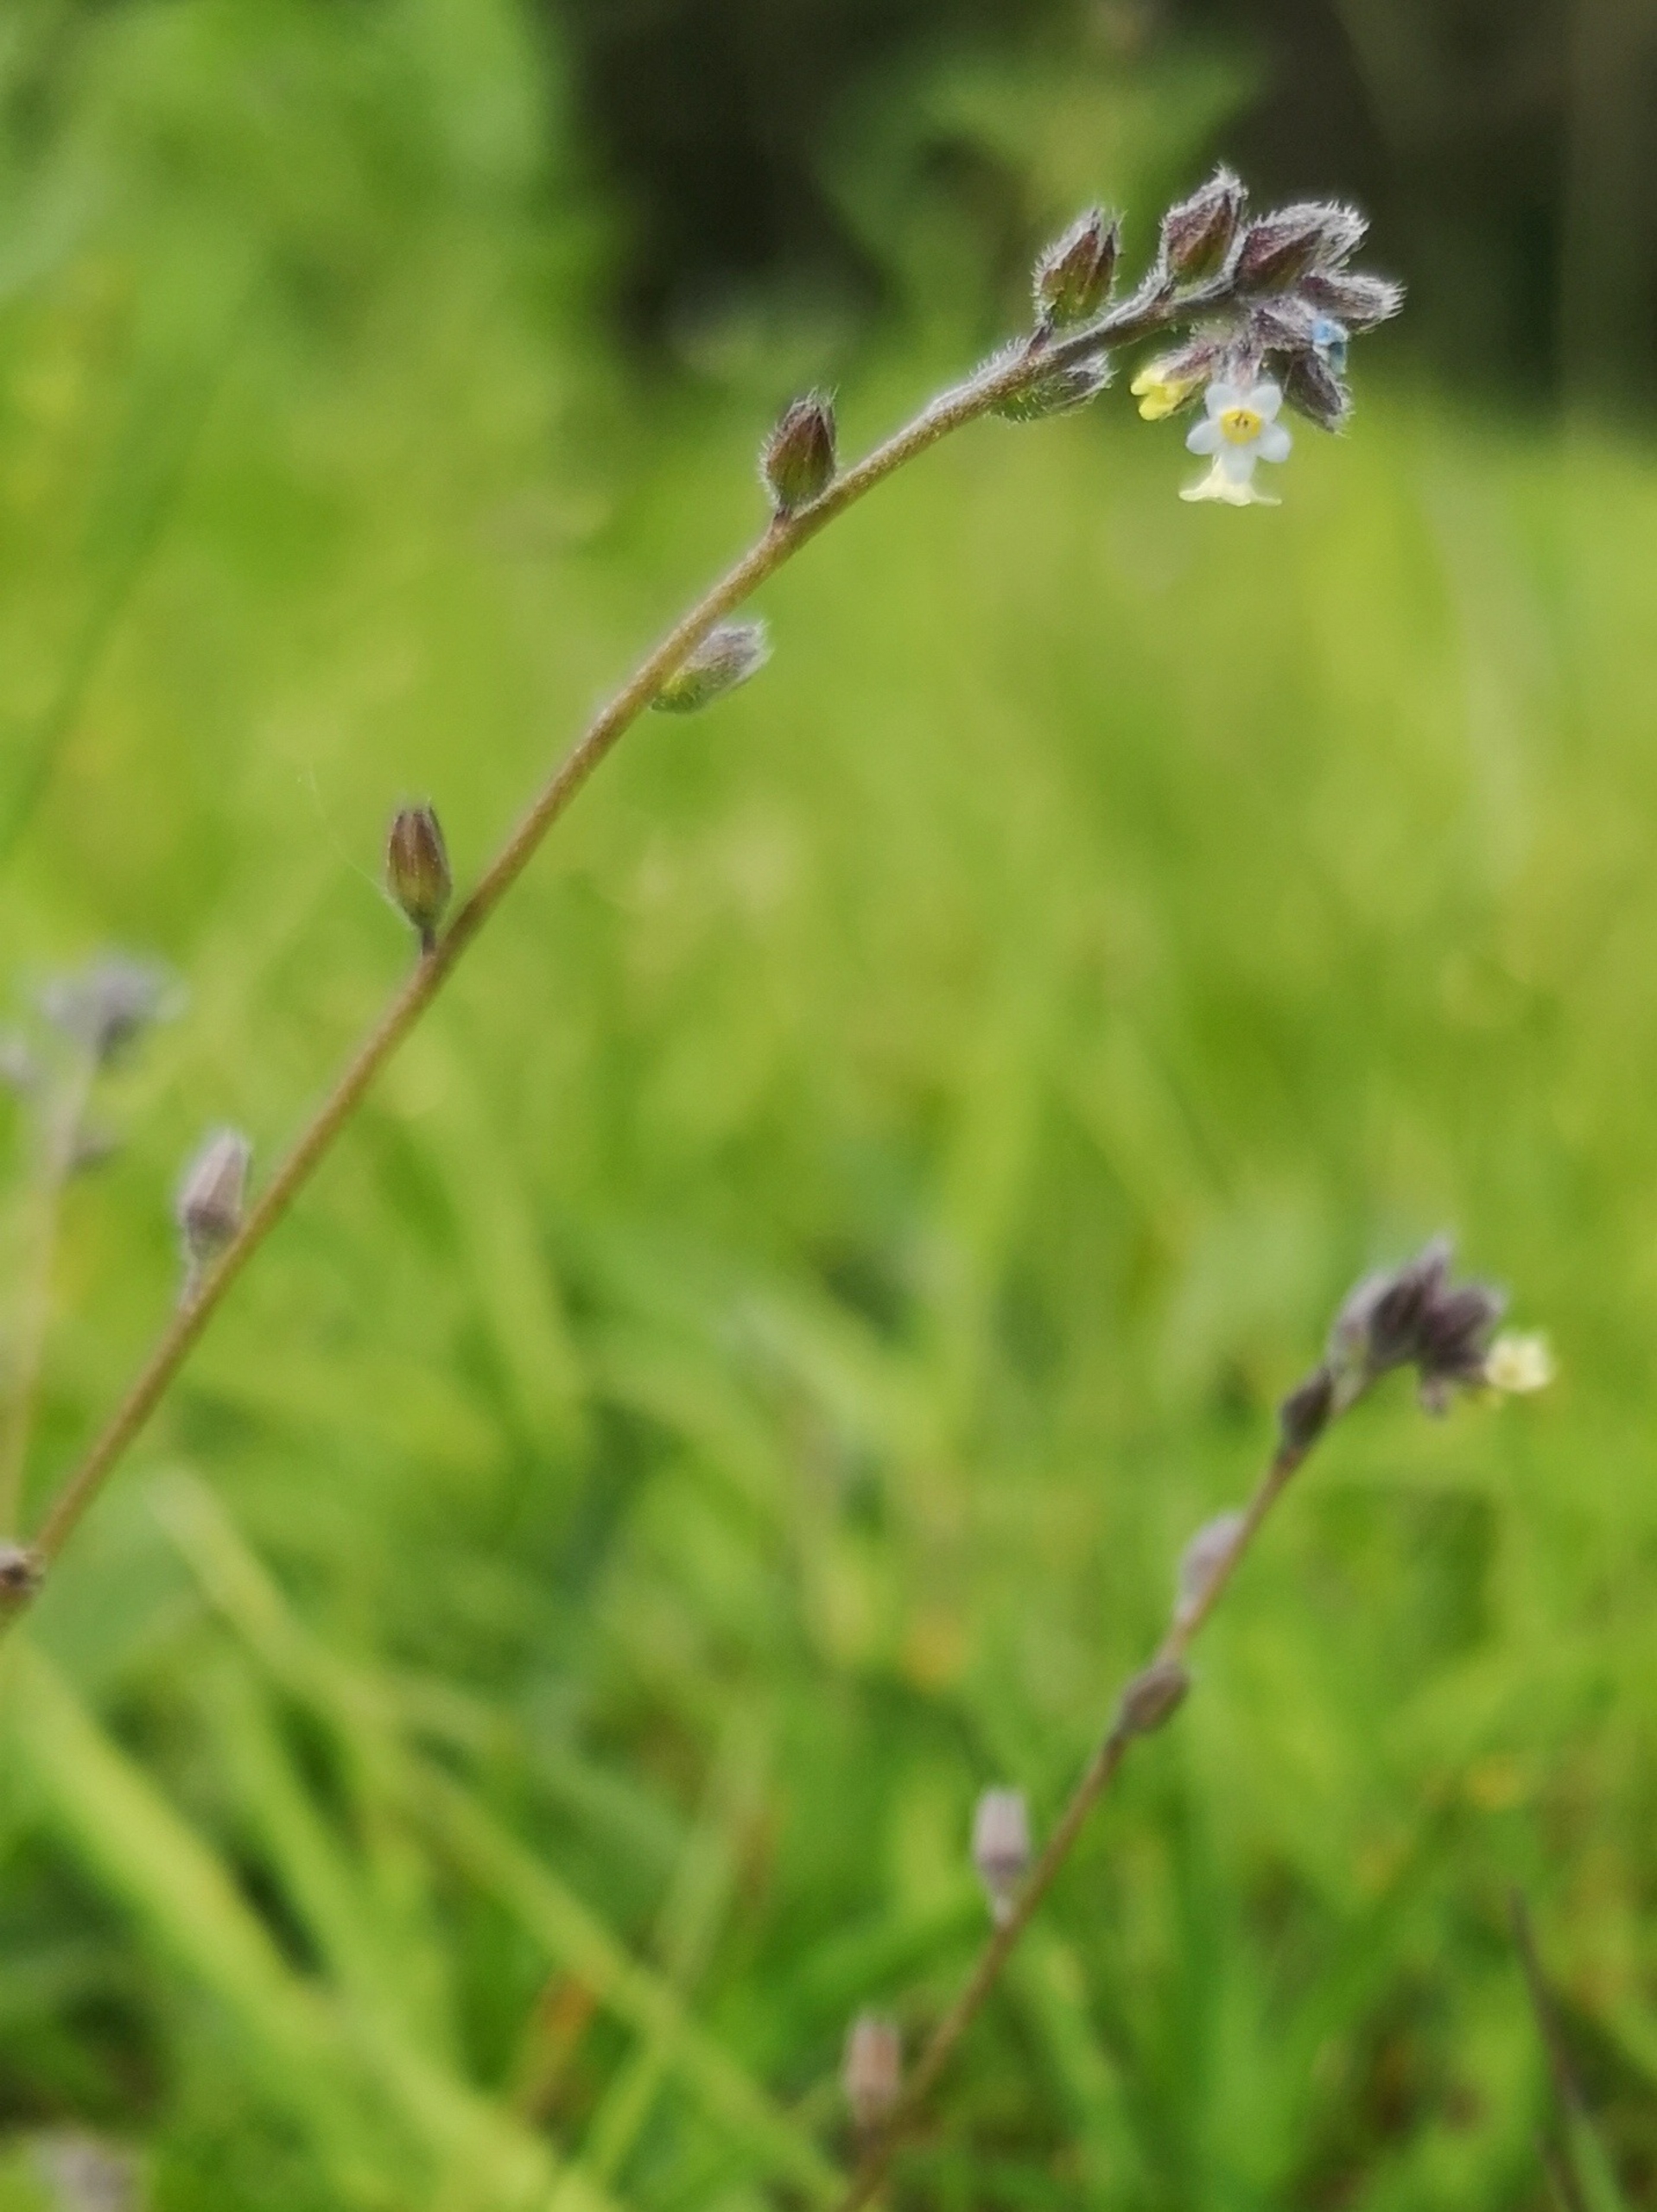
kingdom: Plantae
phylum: Tracheophyta
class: Magnoliopsida
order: Boraginales
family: Boraginaceae
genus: Myosotis
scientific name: Myosotis discolor
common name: Forskelligfarvet forglemmigej
